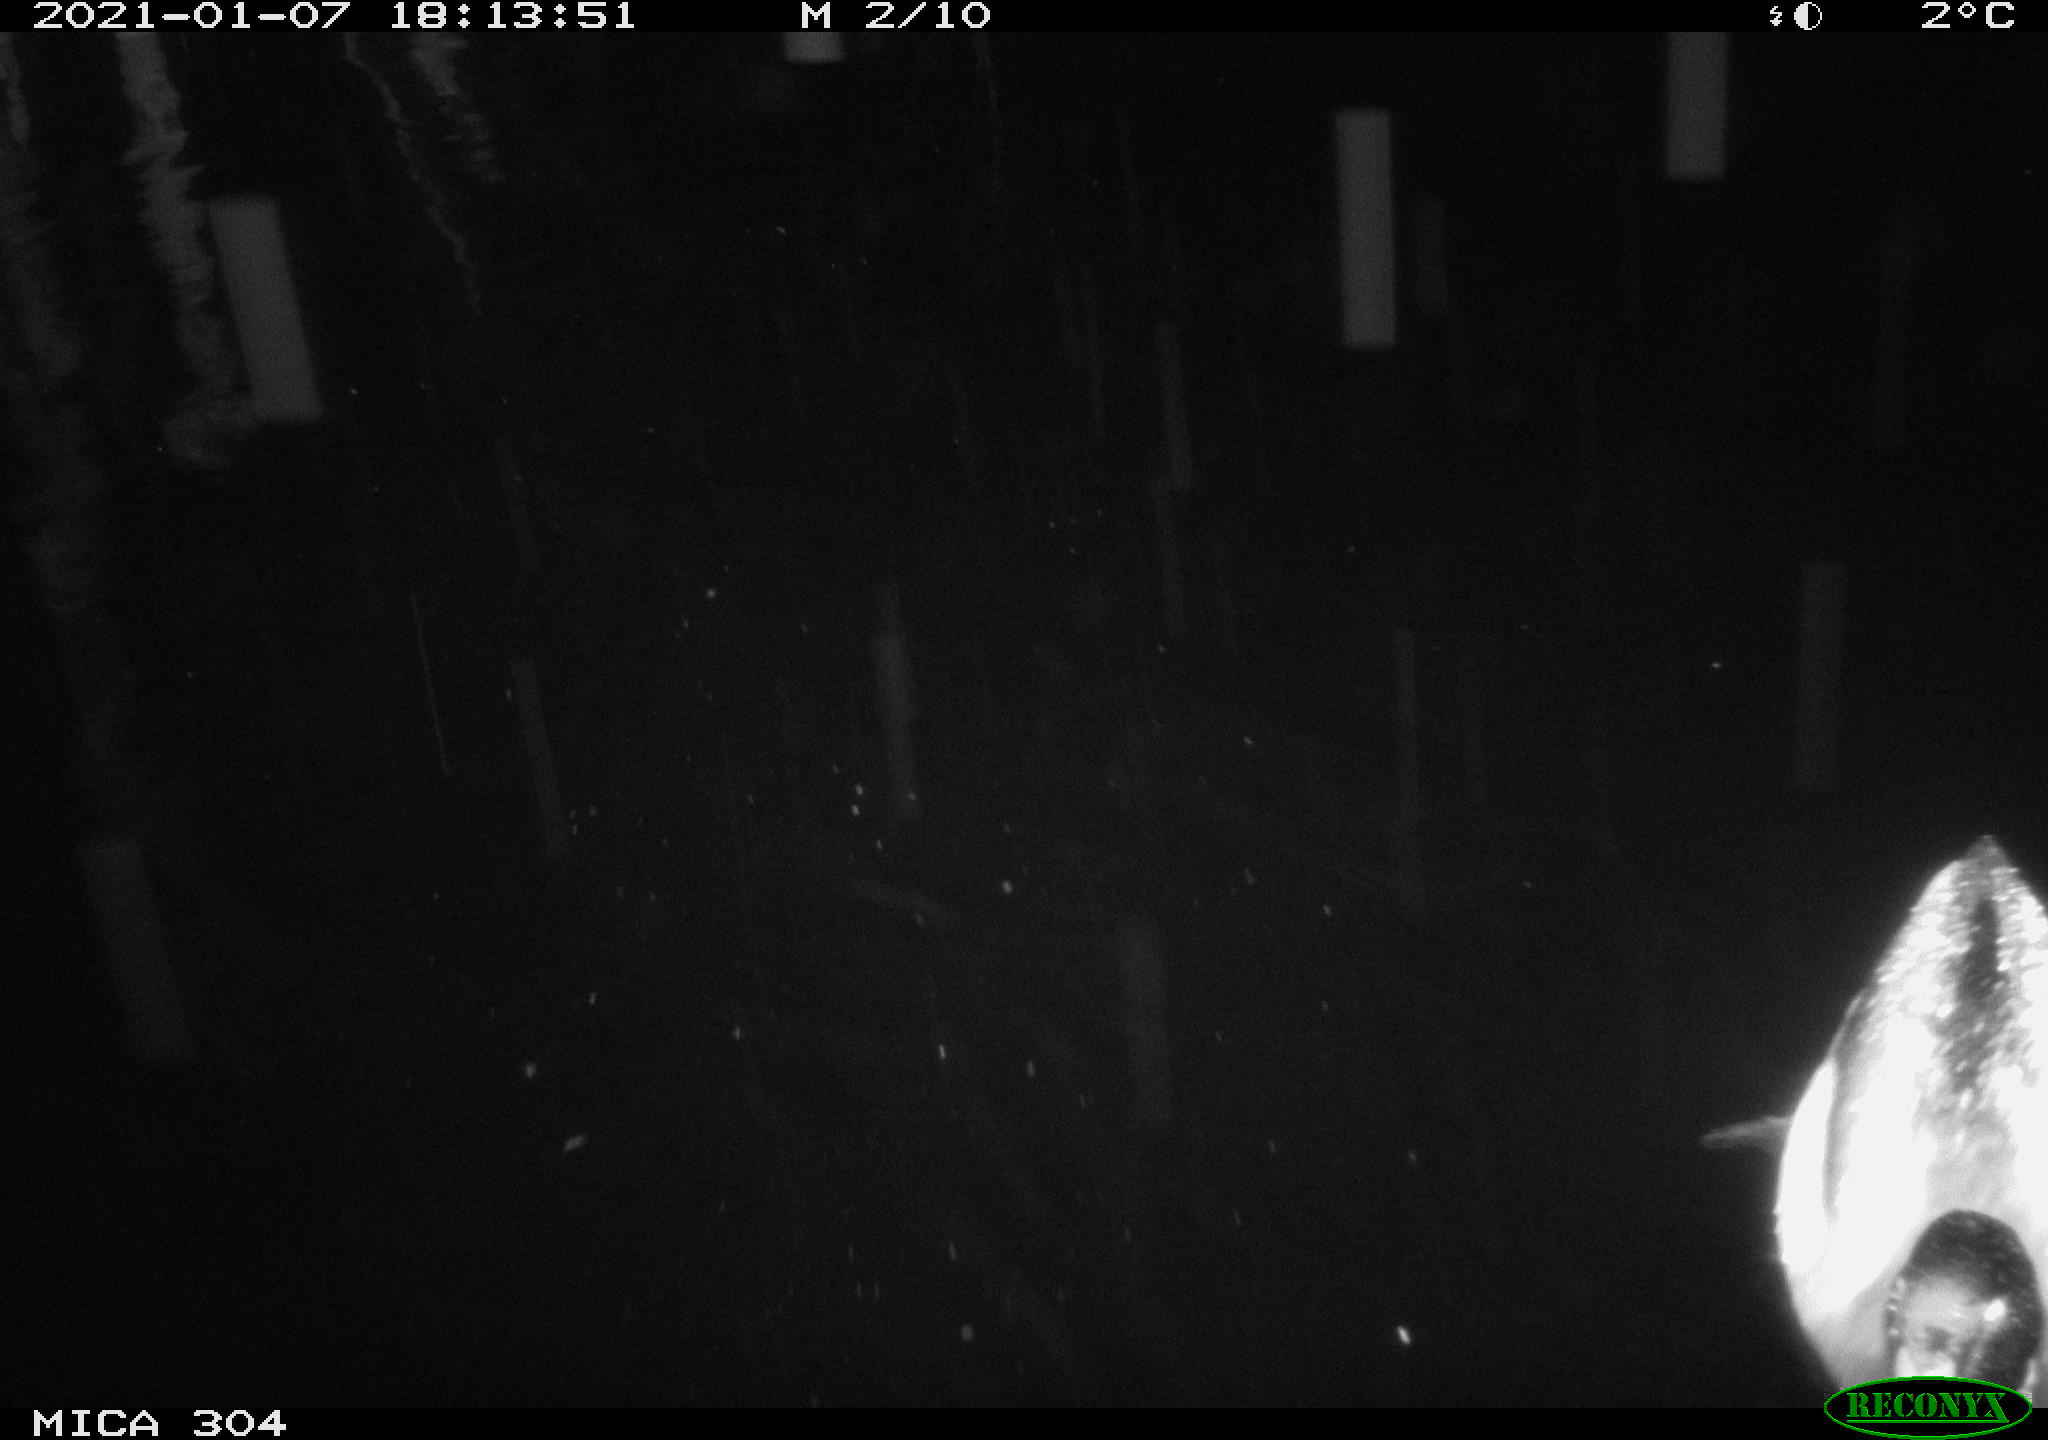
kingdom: Animalia
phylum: Chordata
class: Aves
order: Anseriformes
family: Anatidae
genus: Anas
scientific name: Anas platyrhynchos
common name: Mallard
